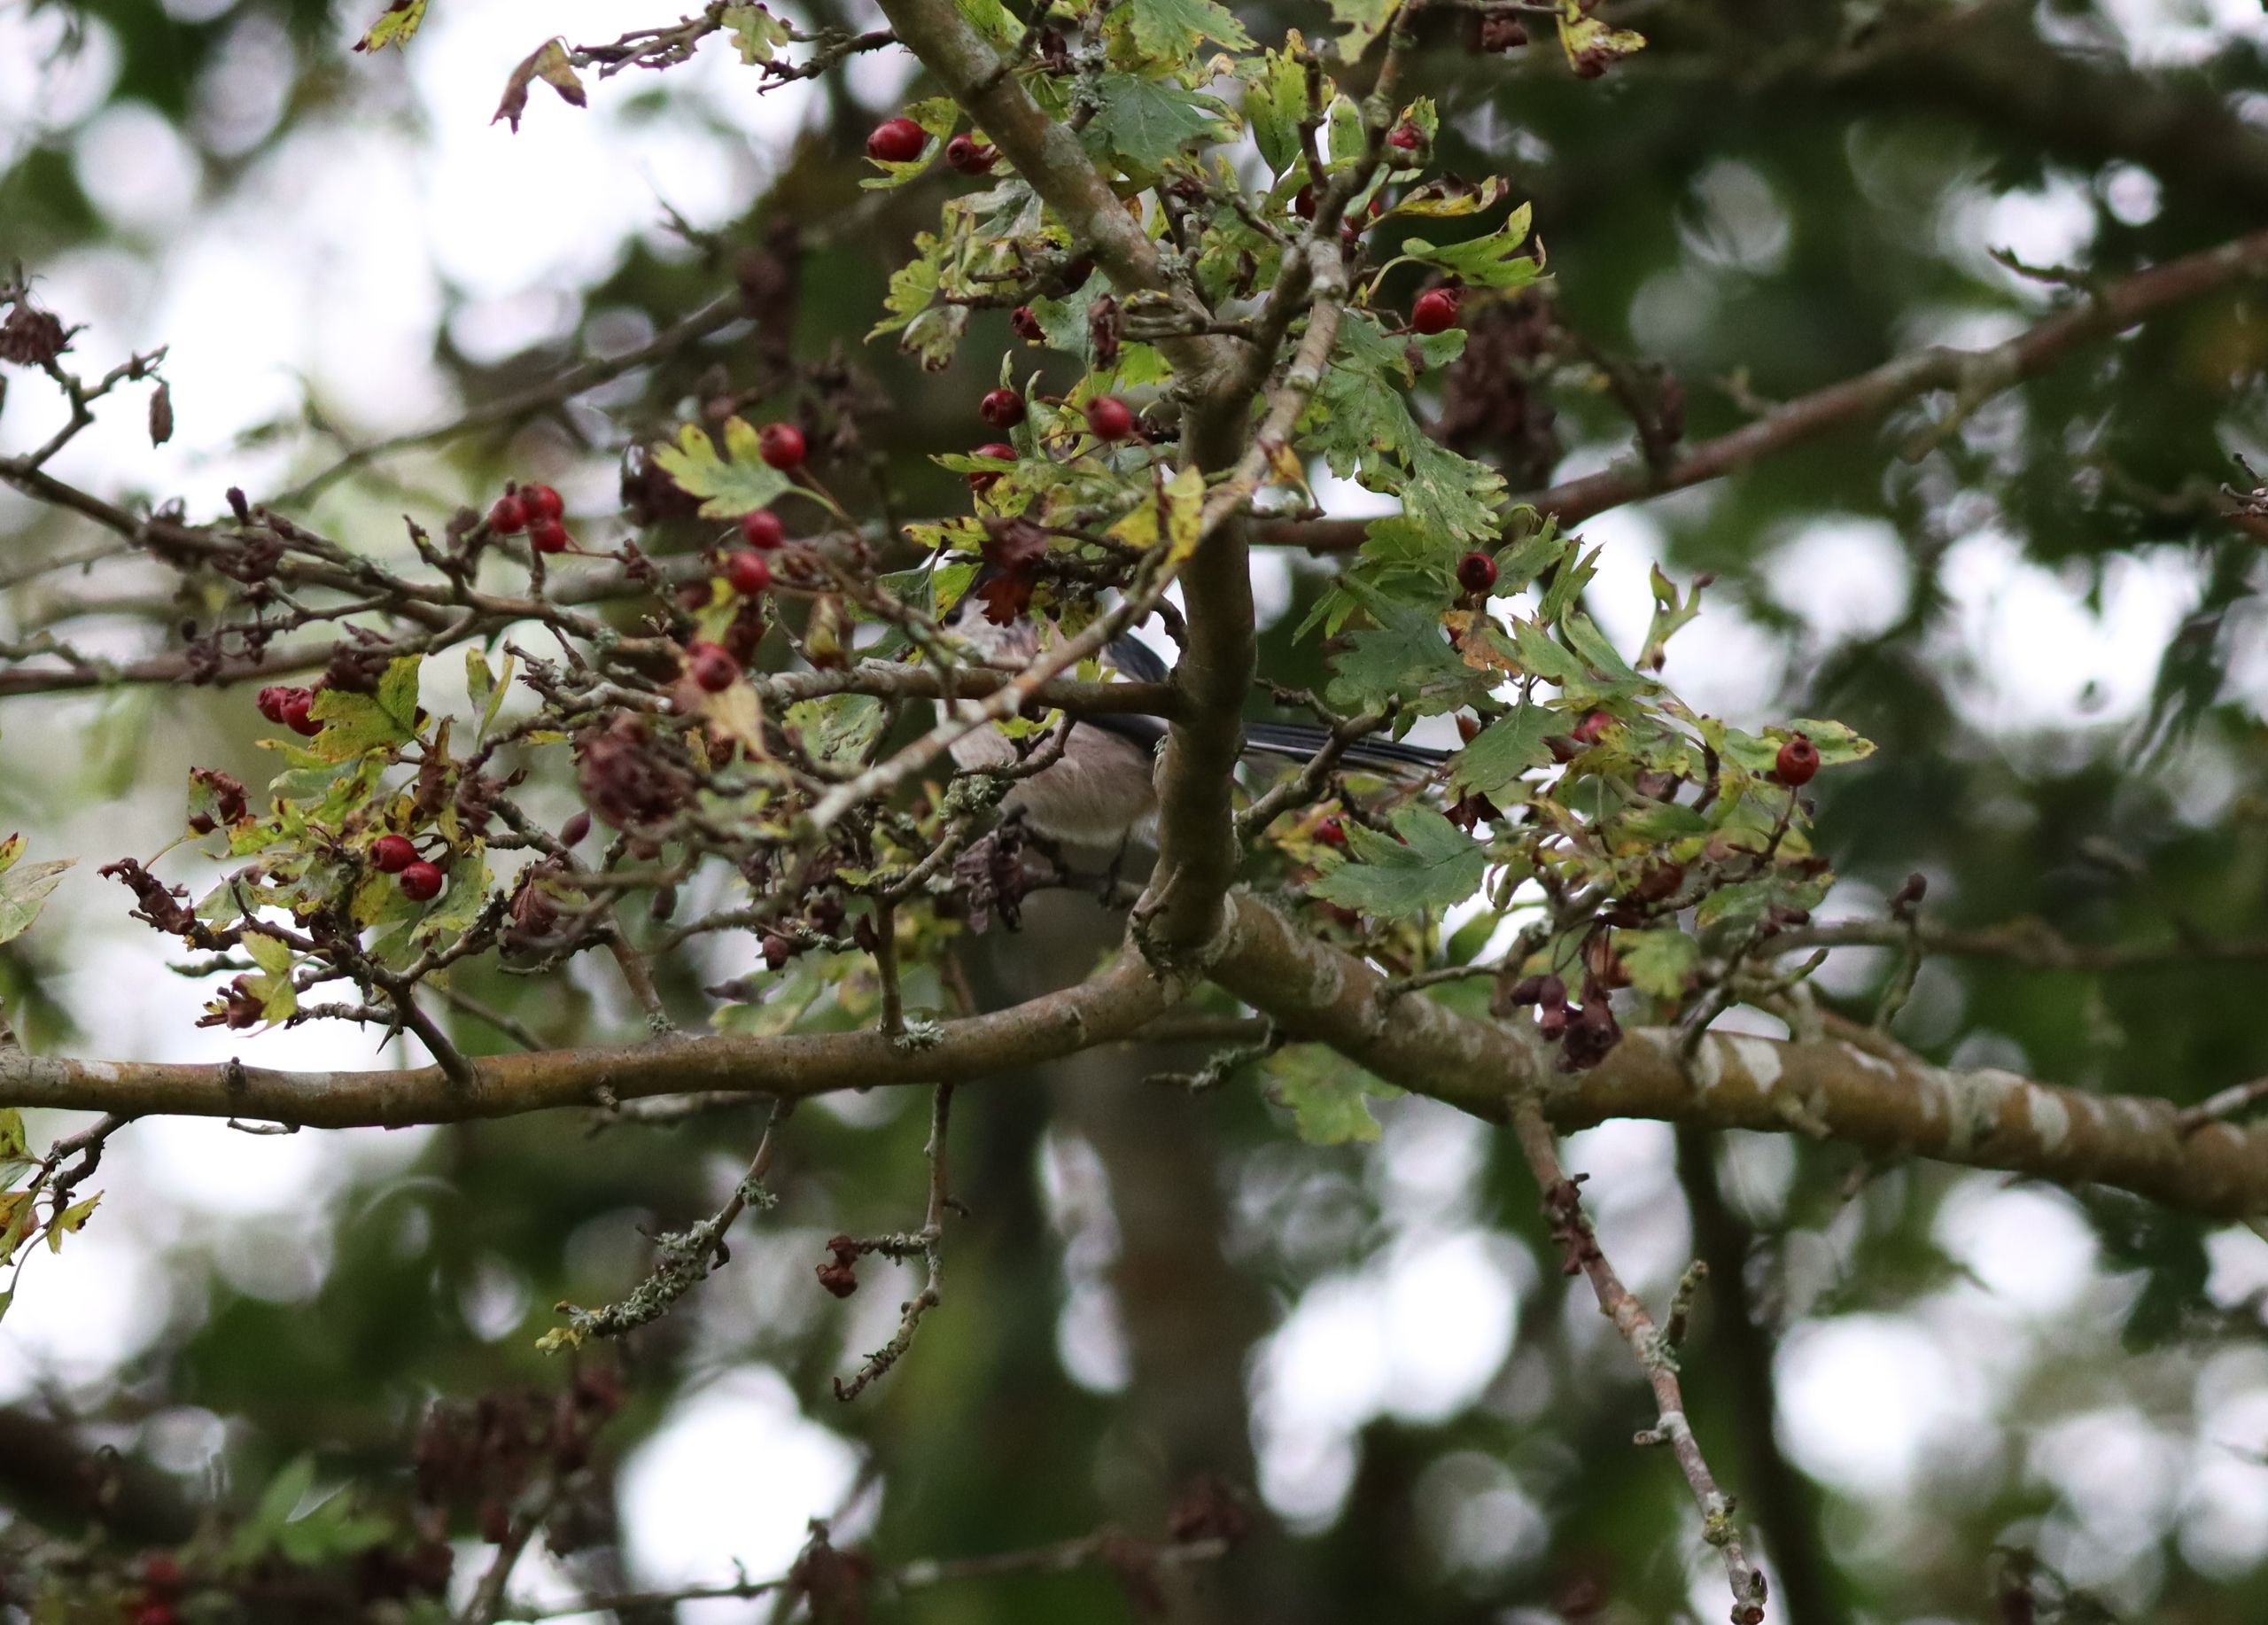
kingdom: Animalia
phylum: Chordata
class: Aves
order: Passeriformes
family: Aegithalidae
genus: Aegithalos
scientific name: Aegithalos caudatus
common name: Halemejse
